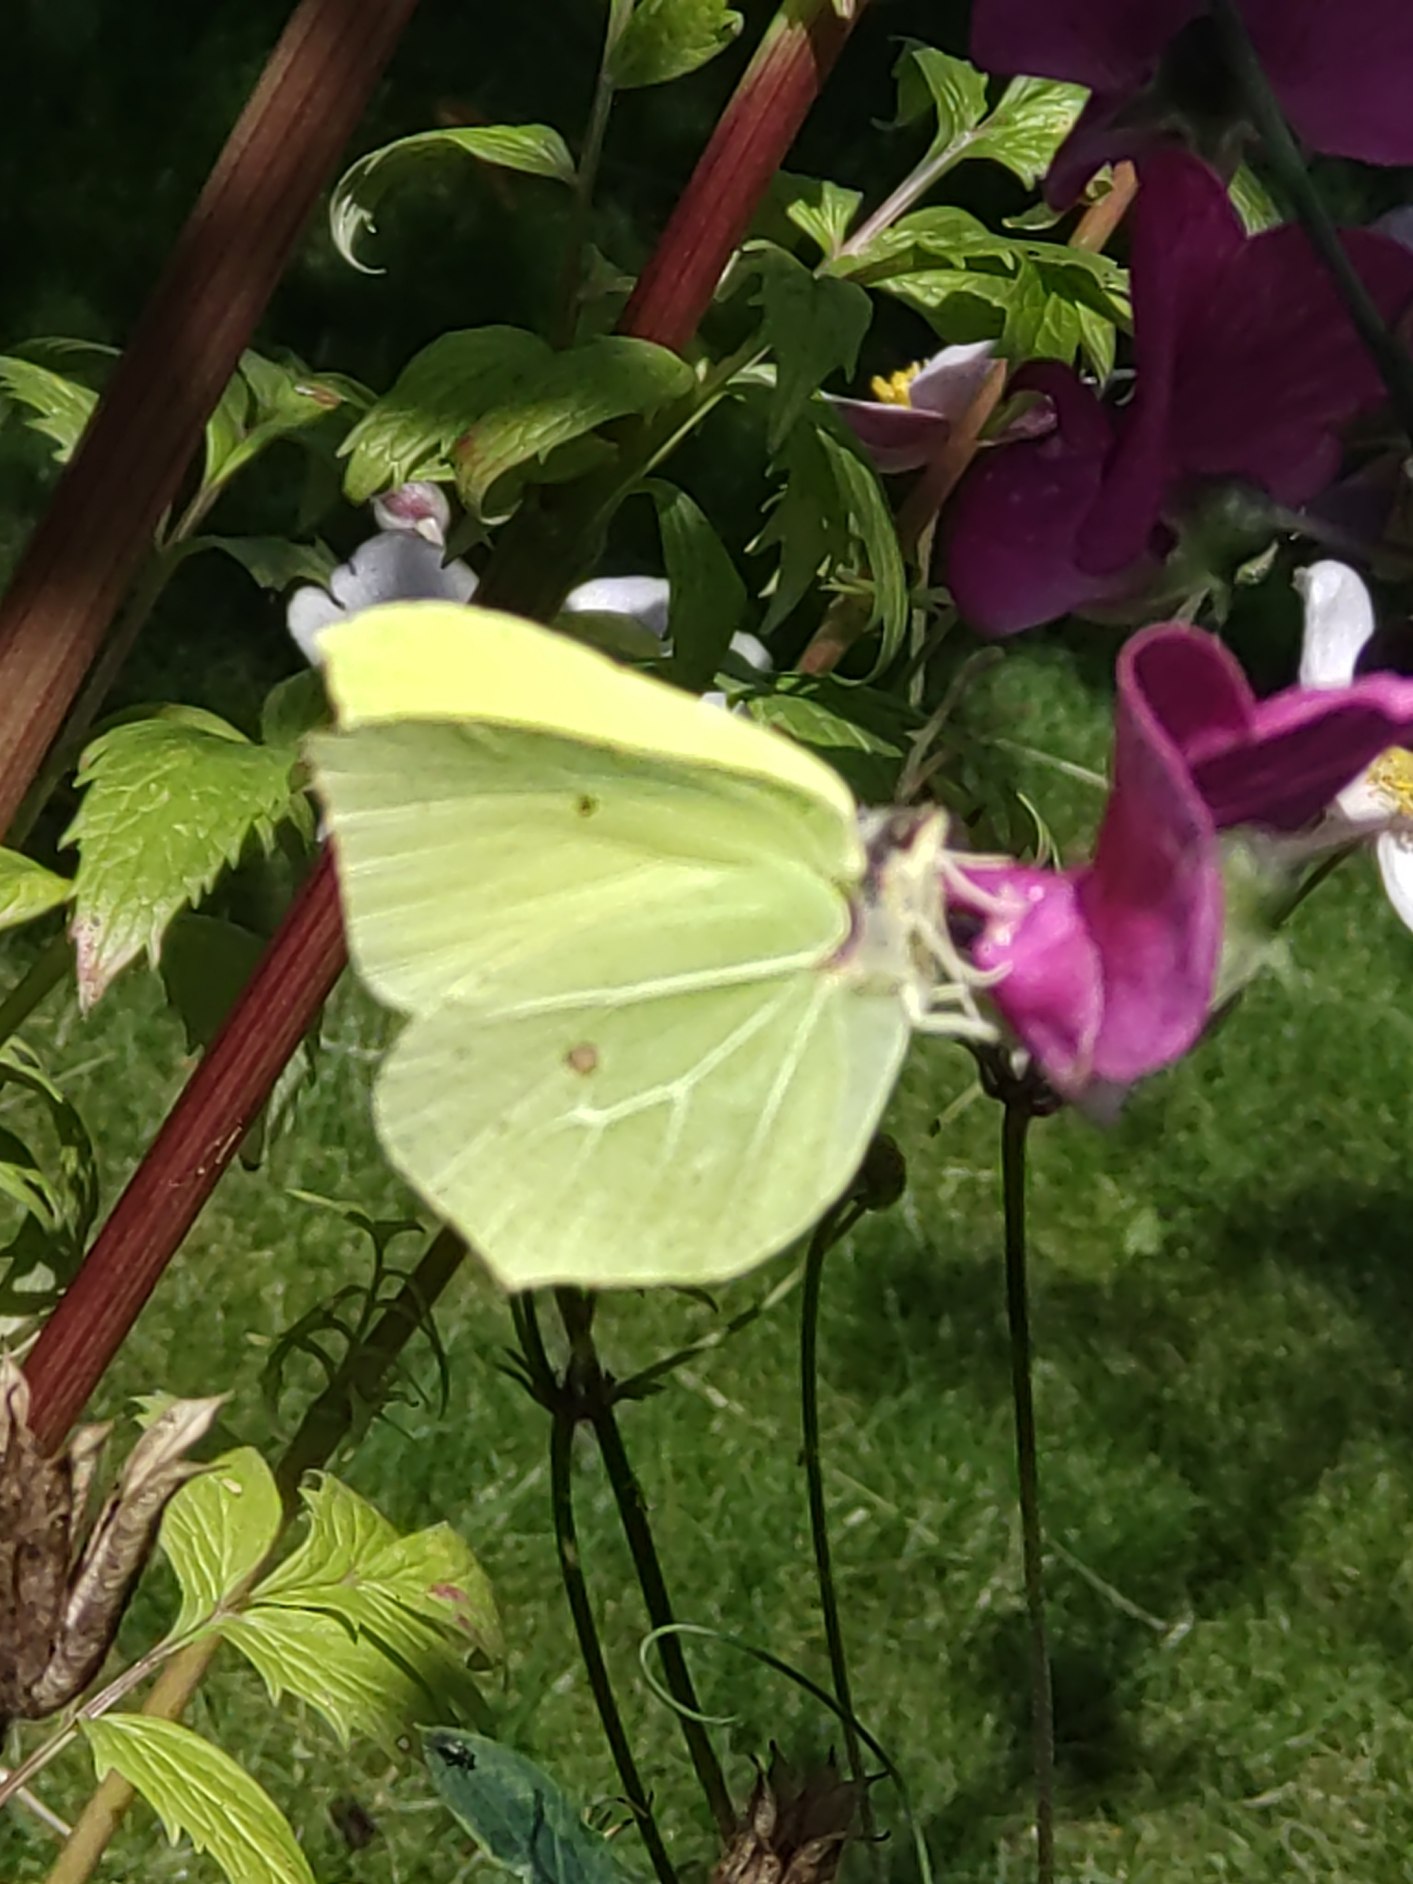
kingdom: Animalia
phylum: Arthropoda
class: Insecta
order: Lepidoptera
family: Pieridae
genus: Gonepteryx
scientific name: Gonepteryx rhamni
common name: Citronsommerfugl
